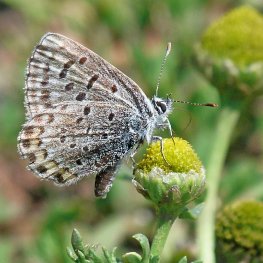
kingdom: Animalia
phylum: Arthropoda
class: Insecta
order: Lepidoptera
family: Lycaenidae
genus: Euphilotes
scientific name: Euphilotes battoides
